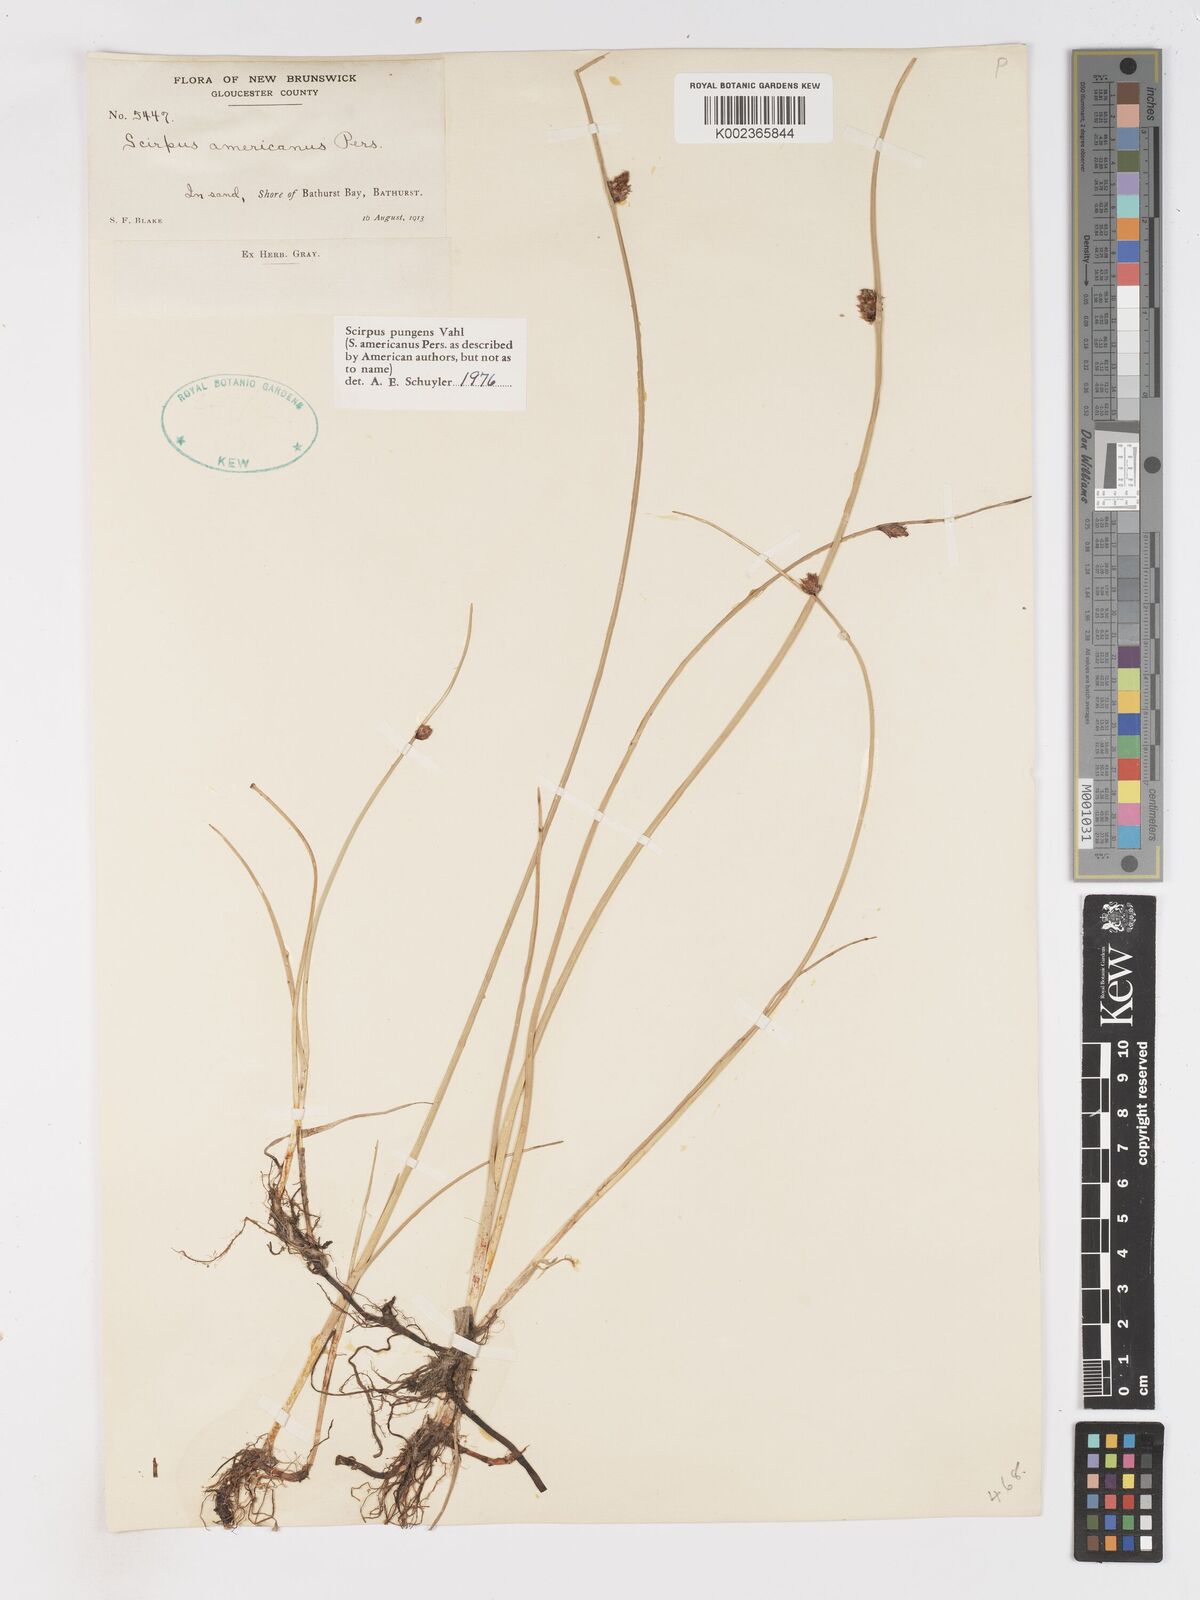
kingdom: Plantae
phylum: Tracheophyta
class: Liliopsida
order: Poales
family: Cyperaceae
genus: Schoenoplectus
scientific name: Schoenoplectus pungens
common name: Sharp club-rush
